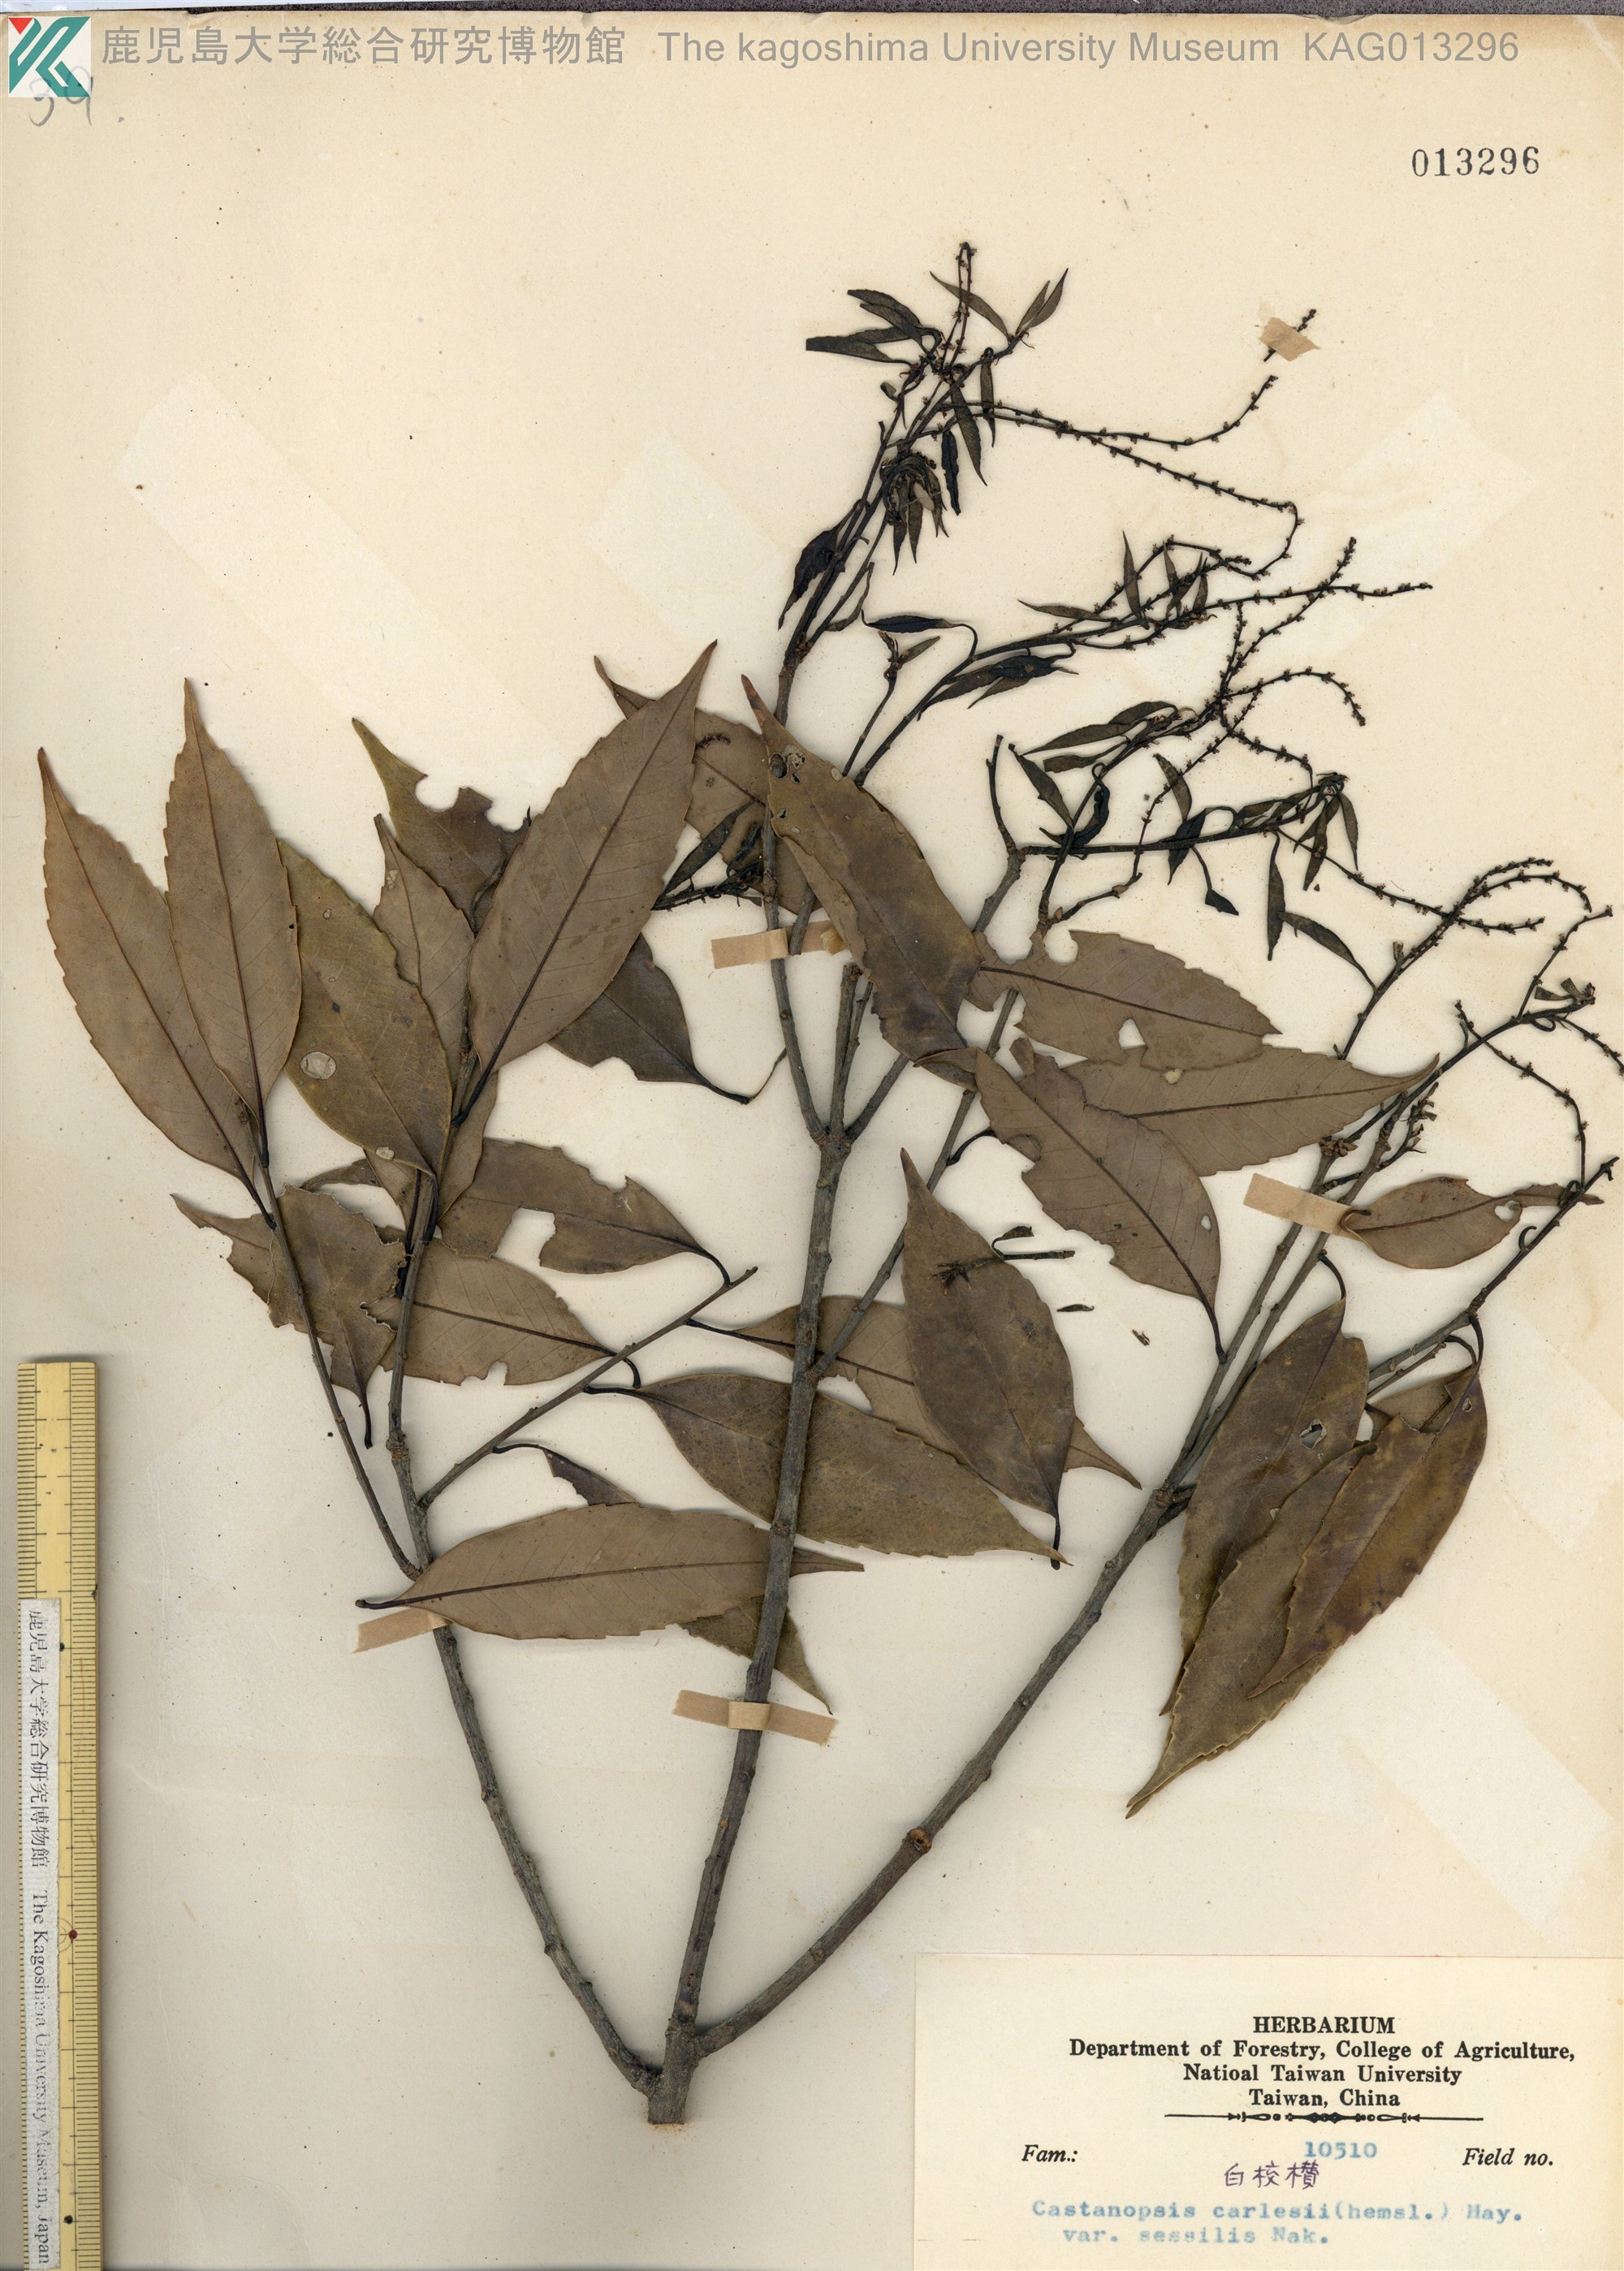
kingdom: Plantae
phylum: Tracheophyta
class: Magnoliopsida
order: Fagales
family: Fagaceae
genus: Castanopsis
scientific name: Castanopsis carlesii
